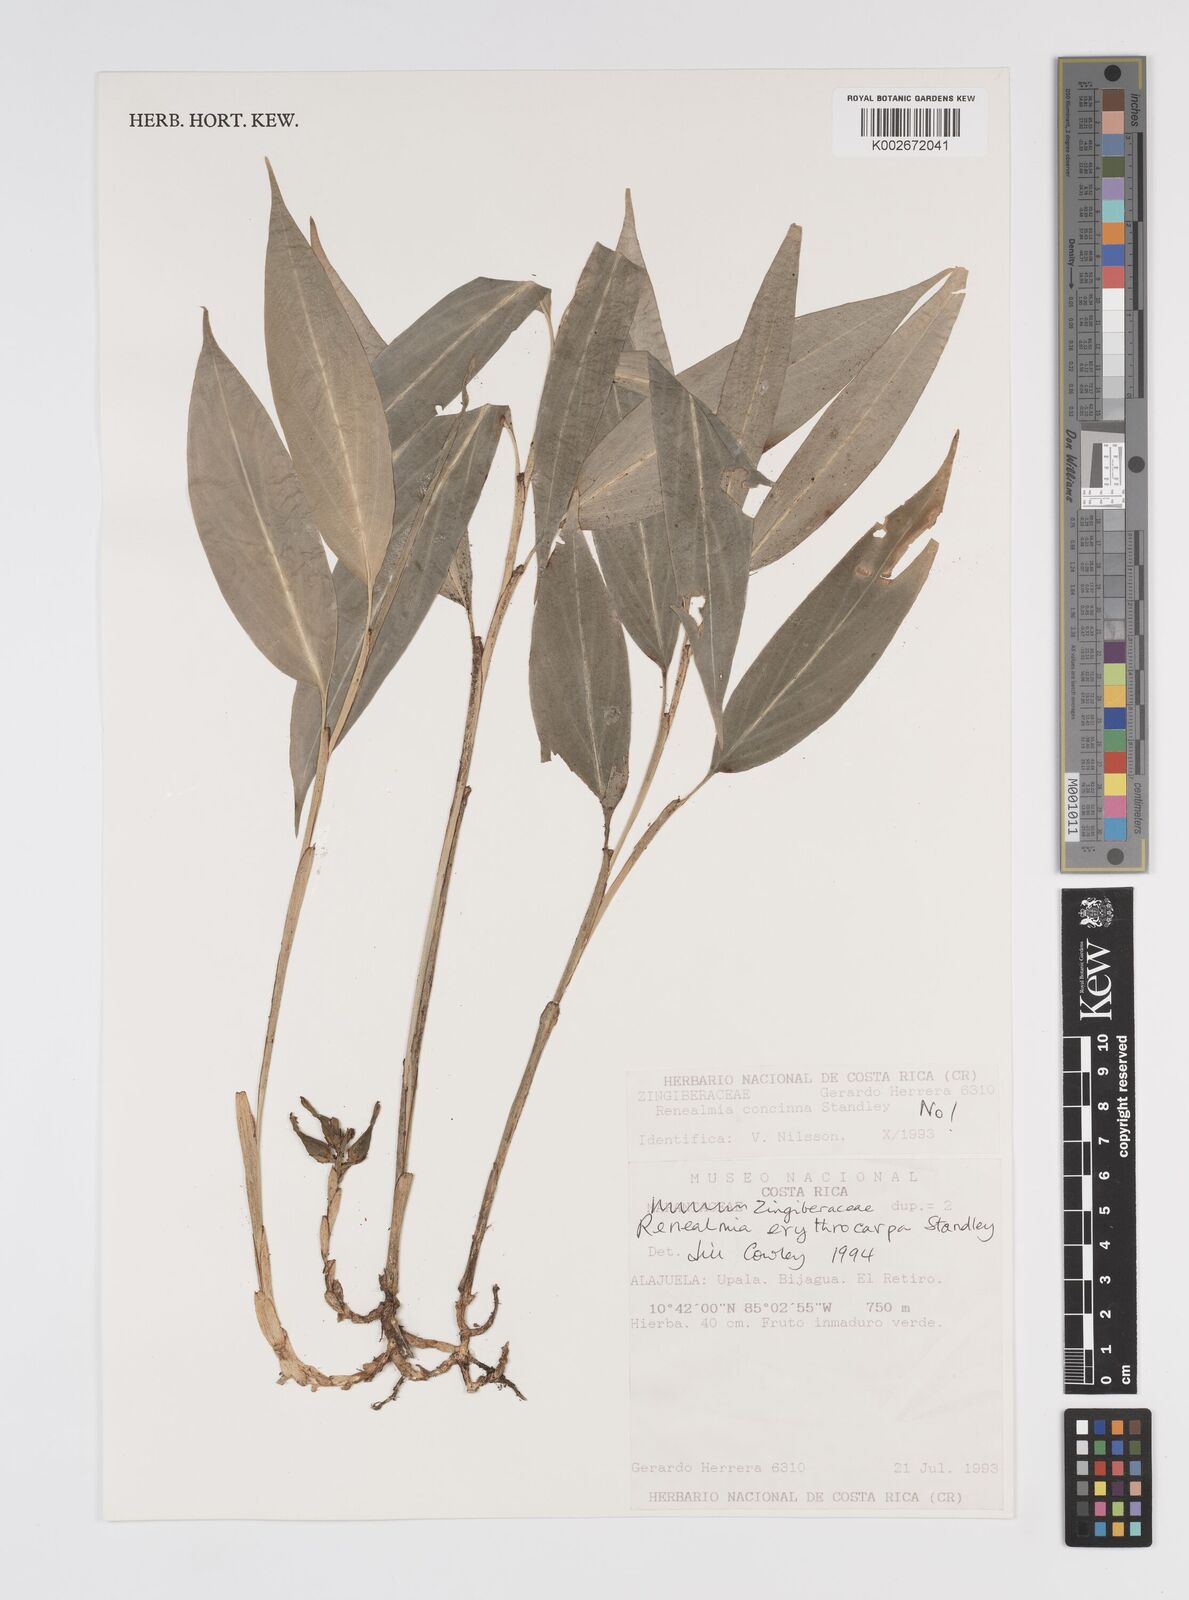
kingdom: Plantae
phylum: Tracheophyta
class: Liliopsida
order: Zingiberales
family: Zingiberaceae
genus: Renealmia
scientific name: Renealmia erythrocarpa
